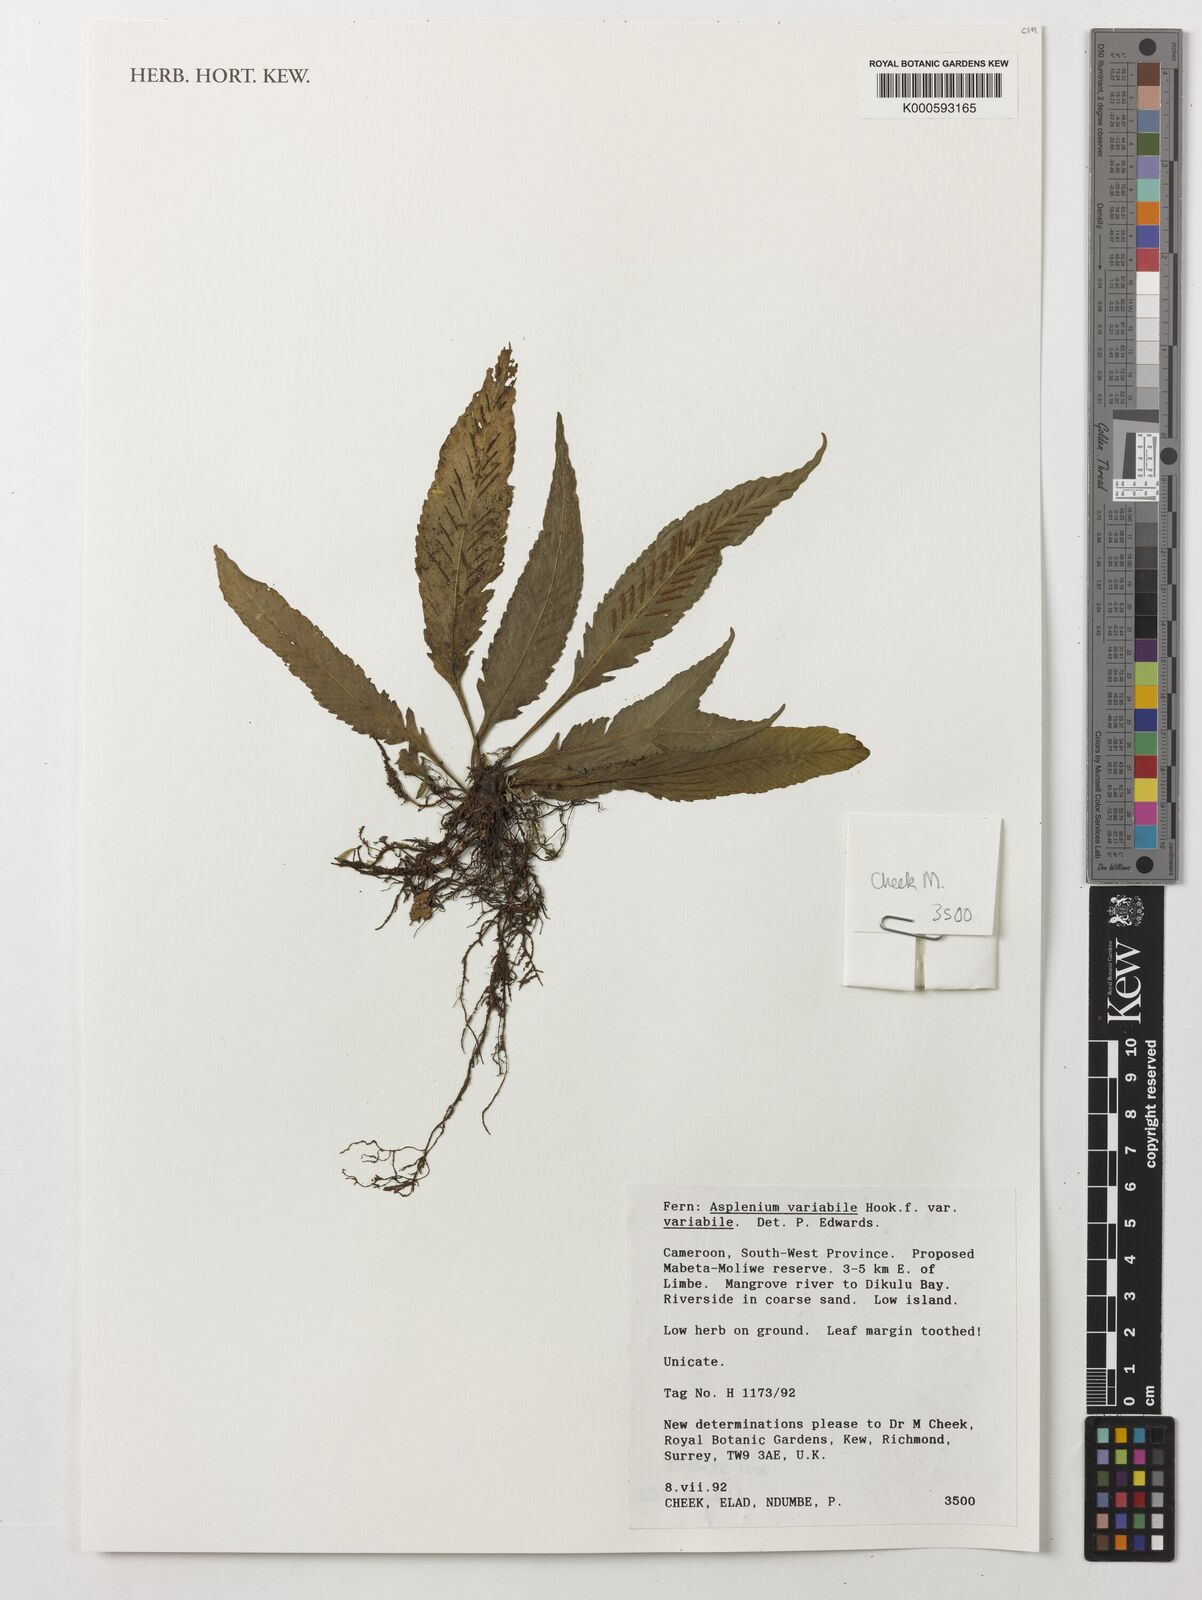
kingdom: Plantae
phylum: Tracheophyta
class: Polypodiopsida
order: Polypodiales
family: Aspleniaceae
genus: Asplenium
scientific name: Asplenium variabile
